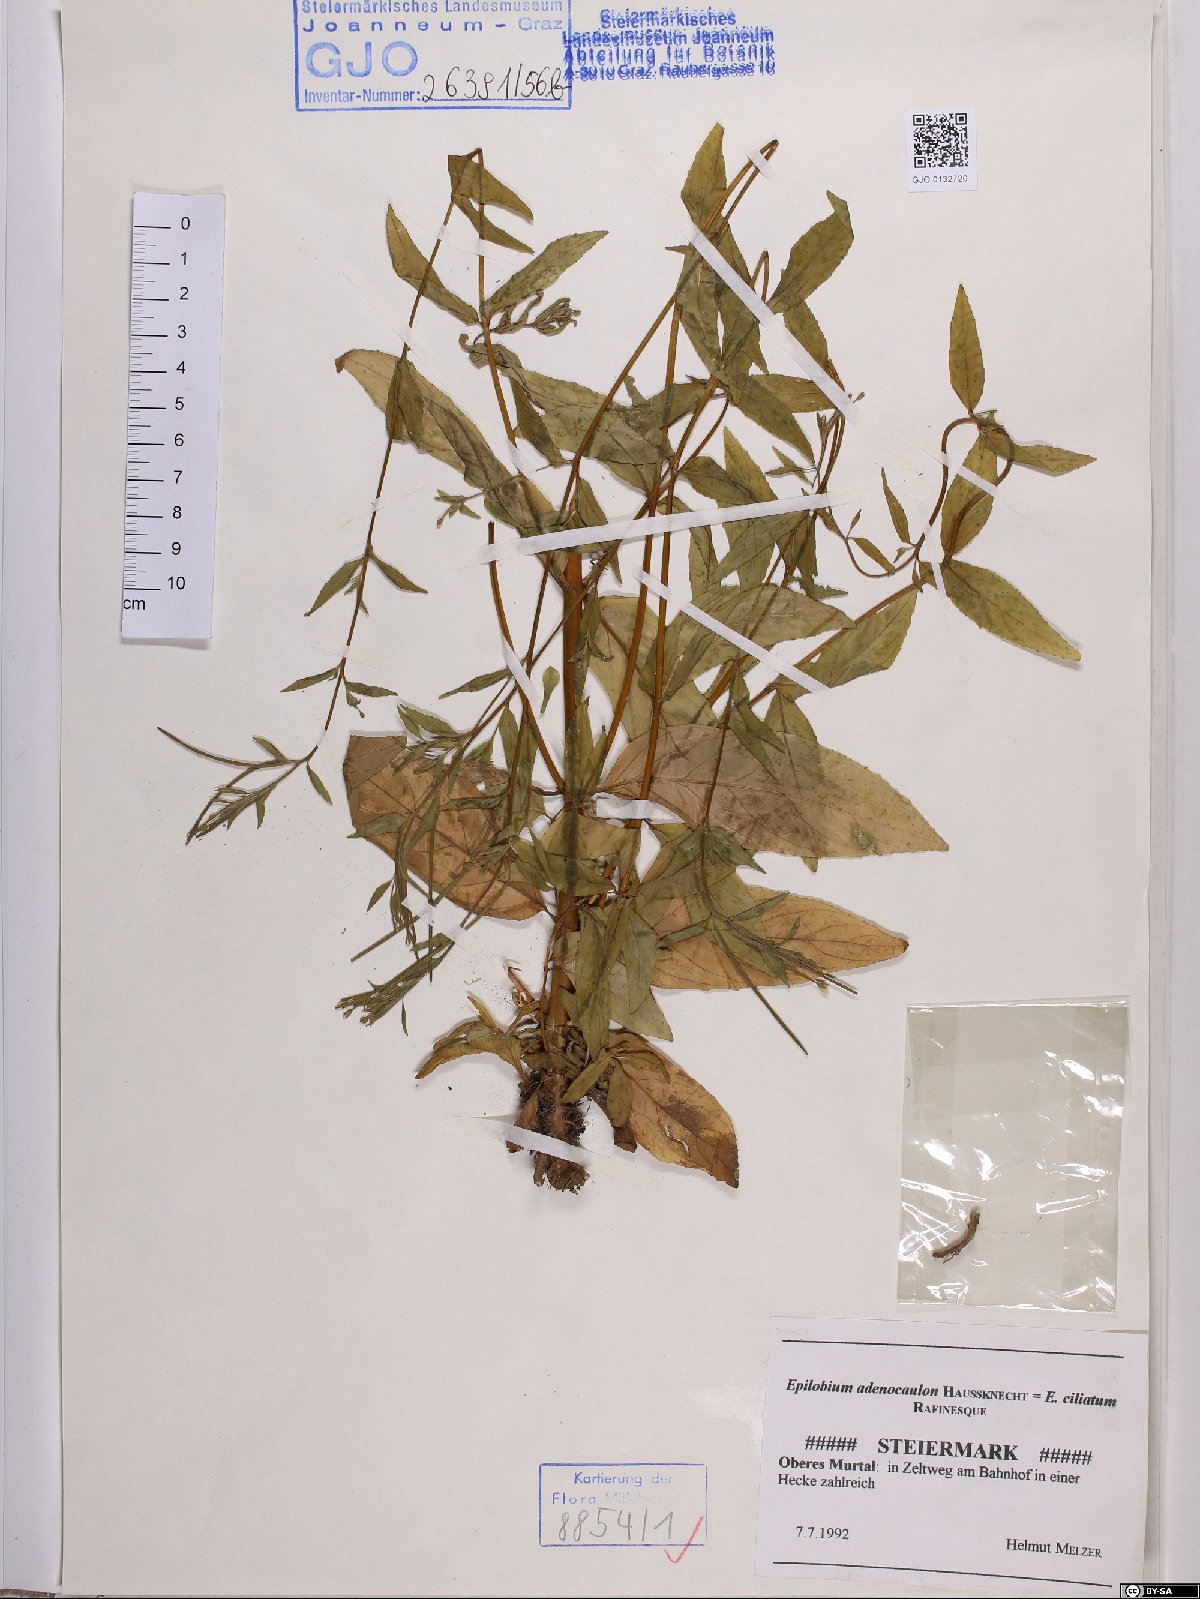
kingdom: Plantae
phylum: Tracheophyta
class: Magnoliopsida
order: Myrtales
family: Onagraceae
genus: Epilobium
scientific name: Epilobium ciliatum
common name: American willowherb
